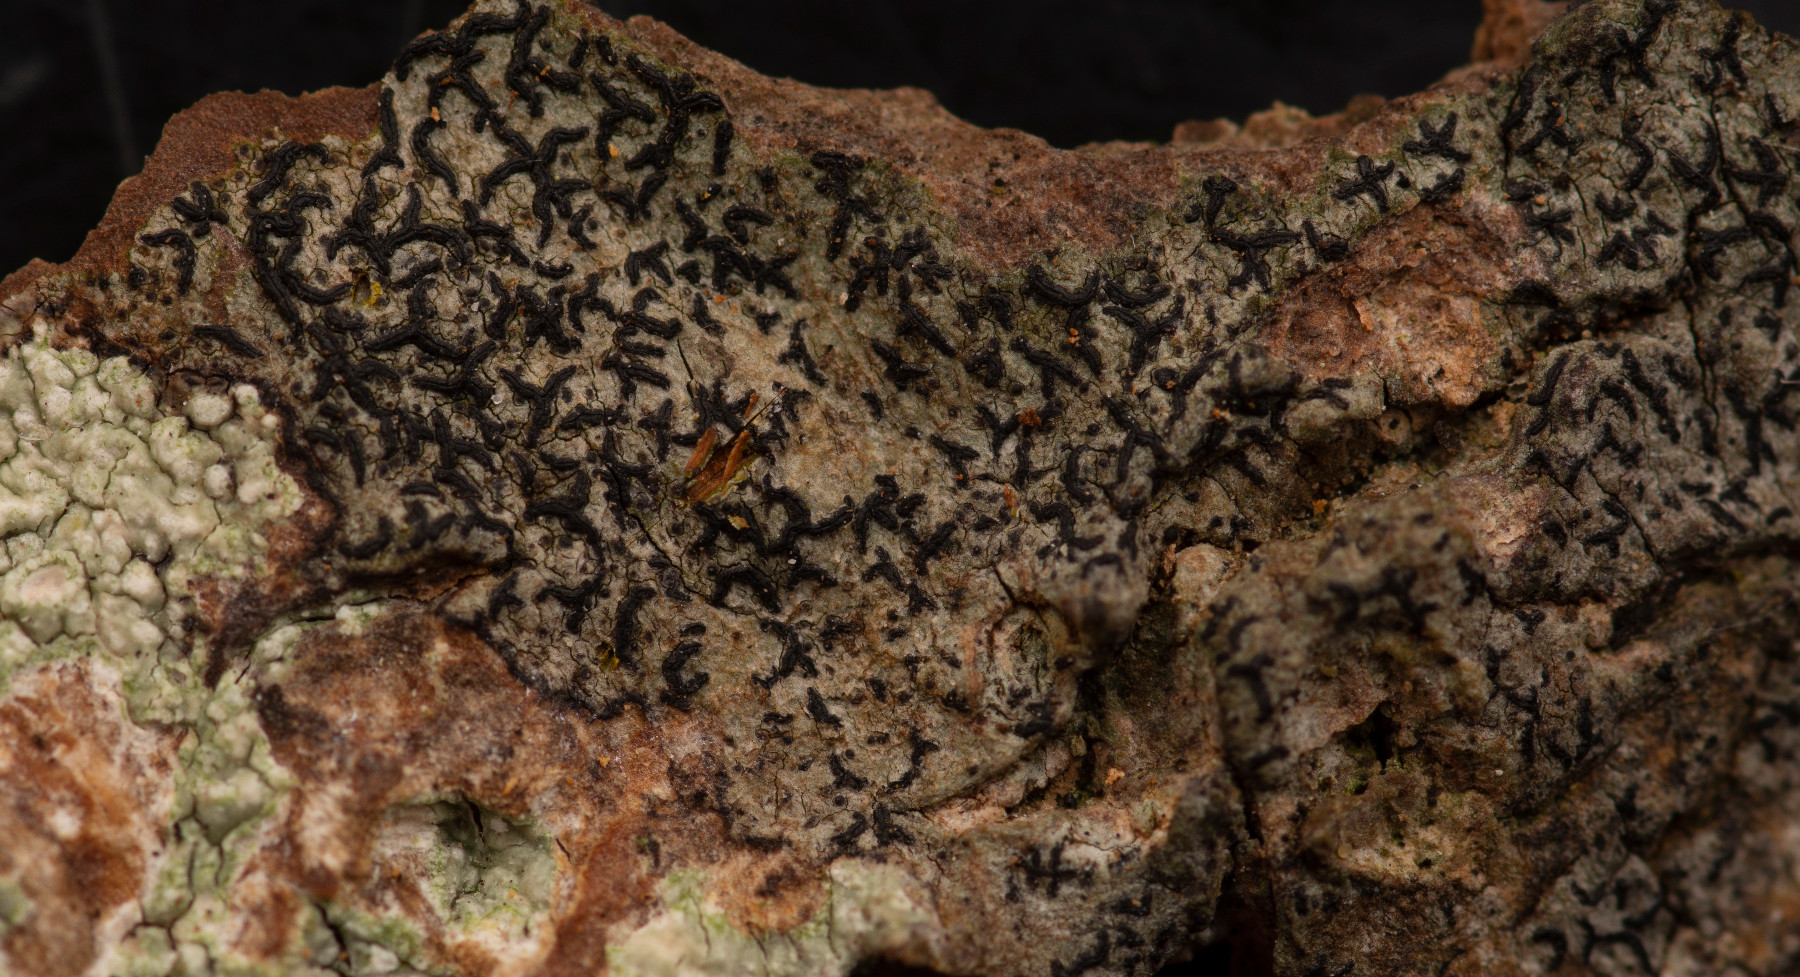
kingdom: Fungi
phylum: Ascomycota
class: Lecanoromycetes
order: Ostropales
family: Graphidaceae
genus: Opegrapha
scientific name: Opegrapha vulgata
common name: oliven-bogstavlav
